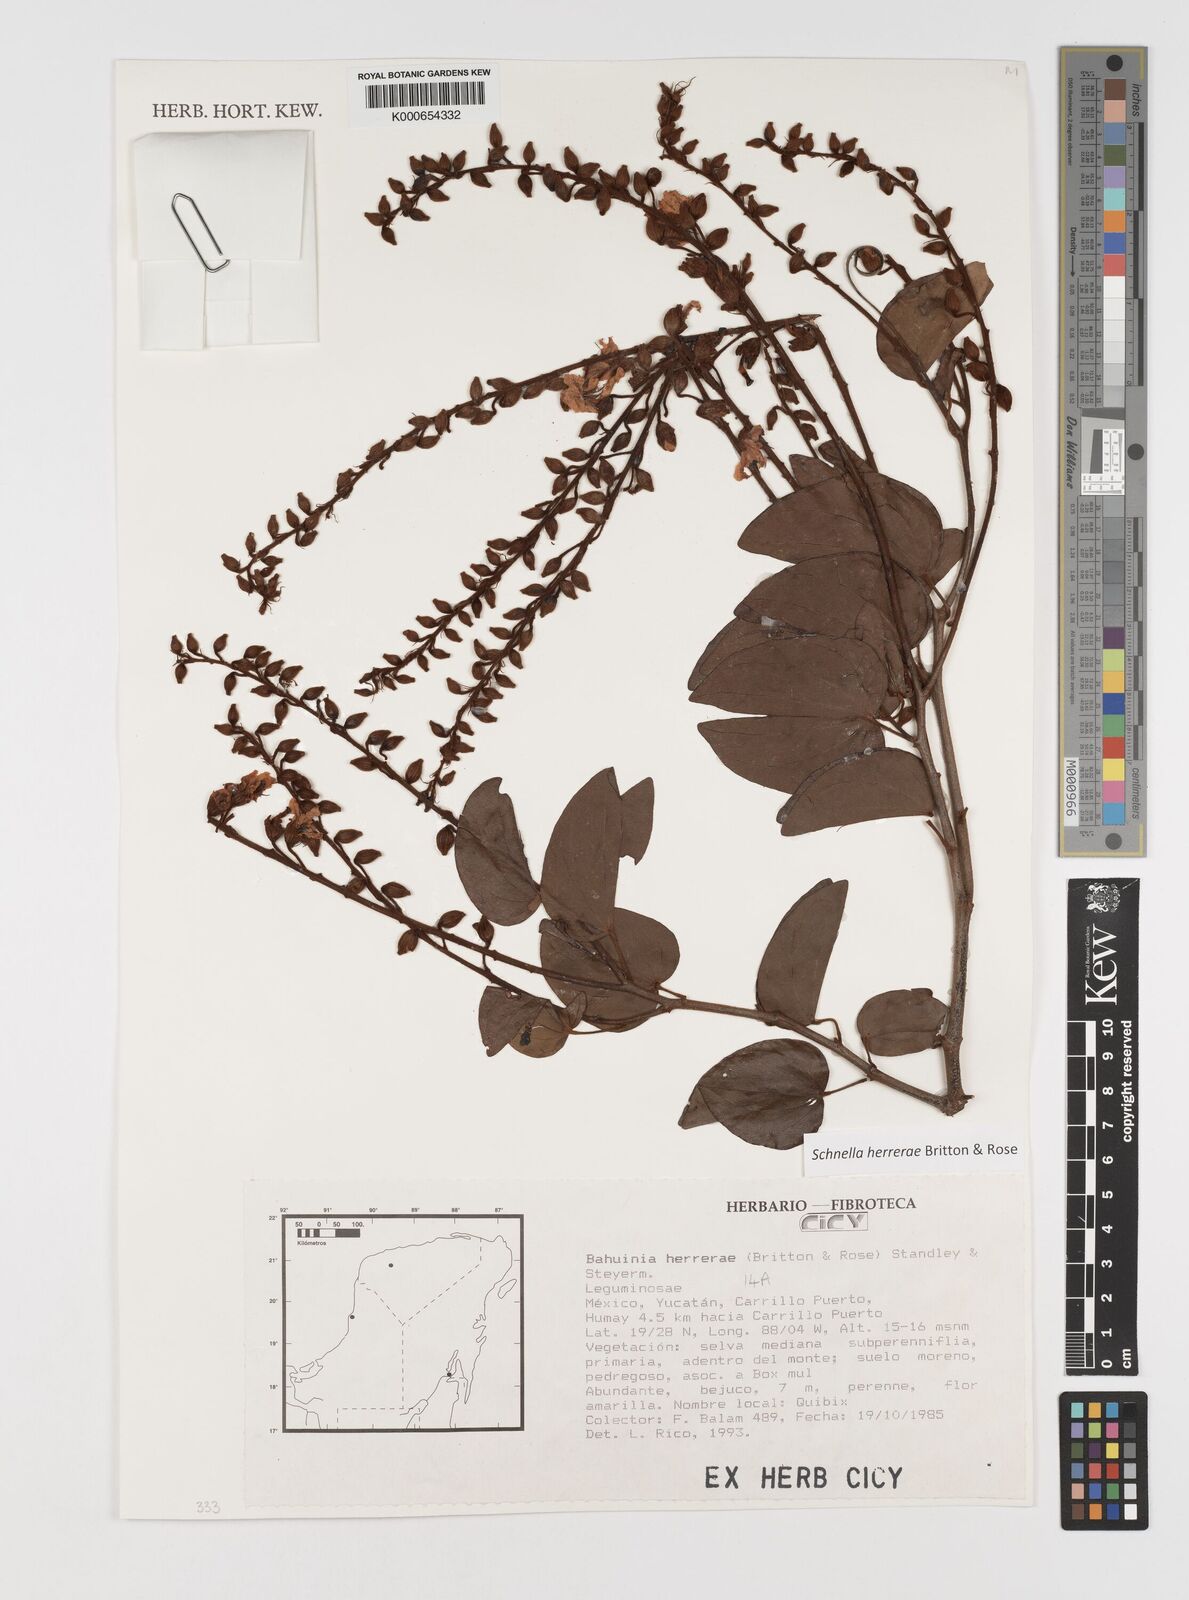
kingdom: Plantae
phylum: Tracheophyta
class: Magnoliopsida
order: Fabales
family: Fabaceae
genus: Schnella
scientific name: Schnella herrerae
